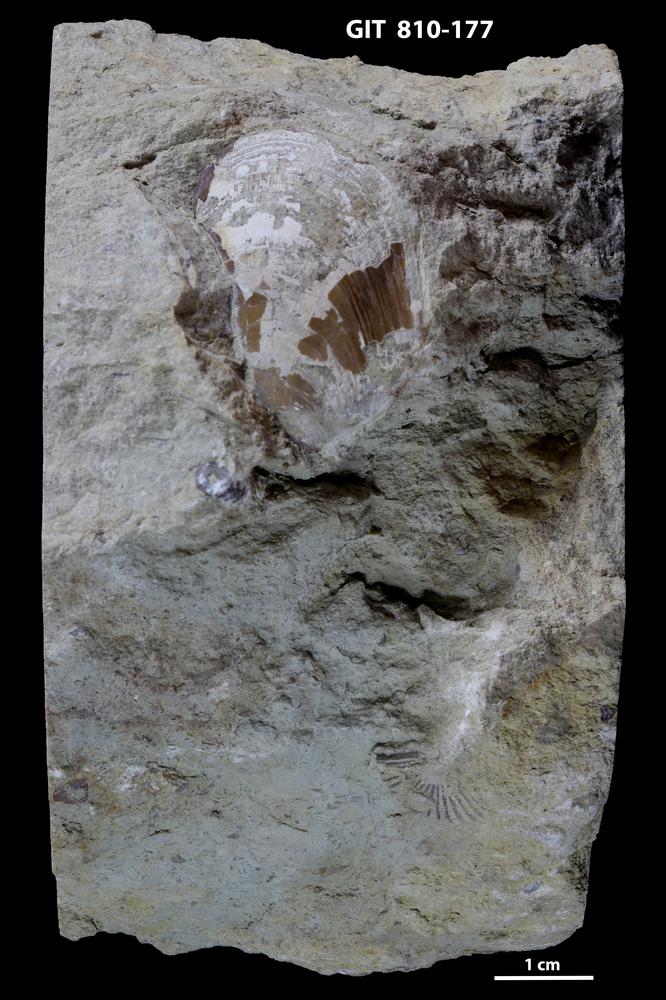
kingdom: Animalia
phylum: Brachiopoda
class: Lingulata
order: Lingulida
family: Pseudolingulidae
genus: Pseudolingula
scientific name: Pseudolingula Crania quadrata
